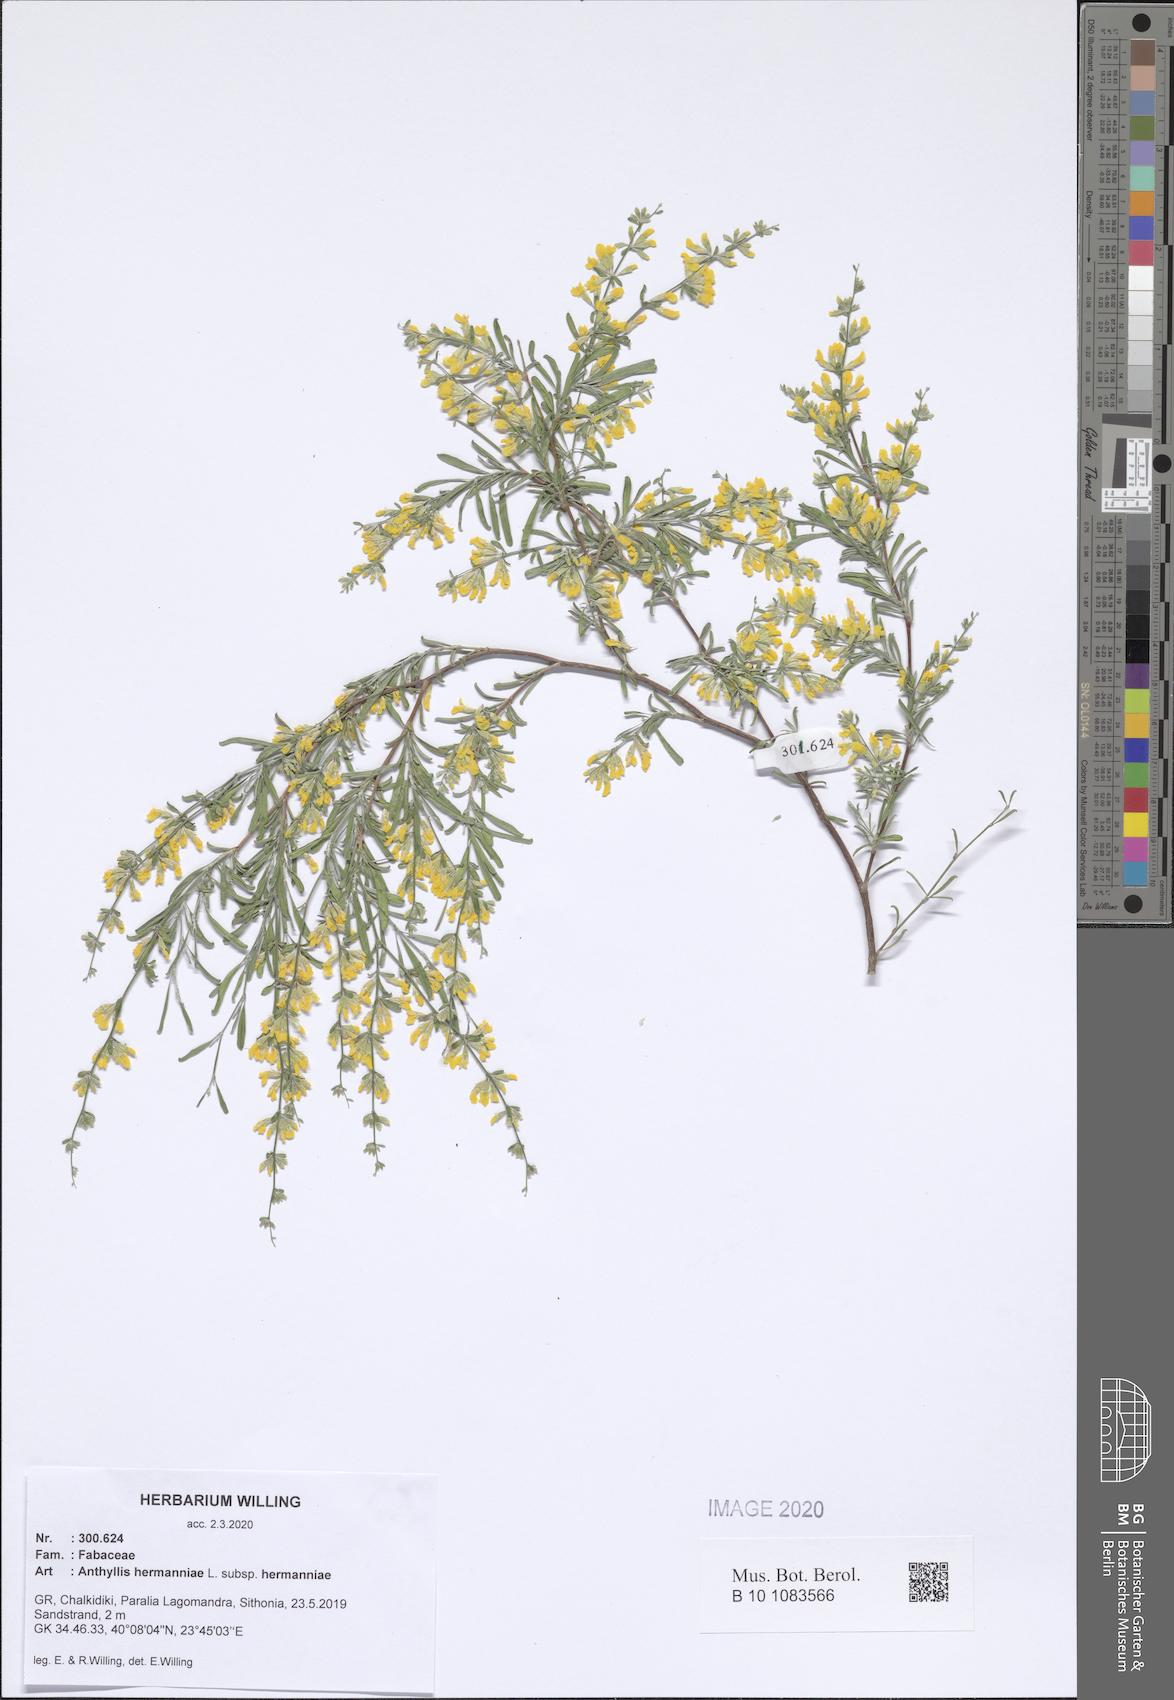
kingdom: Plantae
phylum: Tracheophyta
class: Magnoliopsida
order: Fabales
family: Fabaceae
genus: Anthyllis
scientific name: Anthyllis hermanniae
